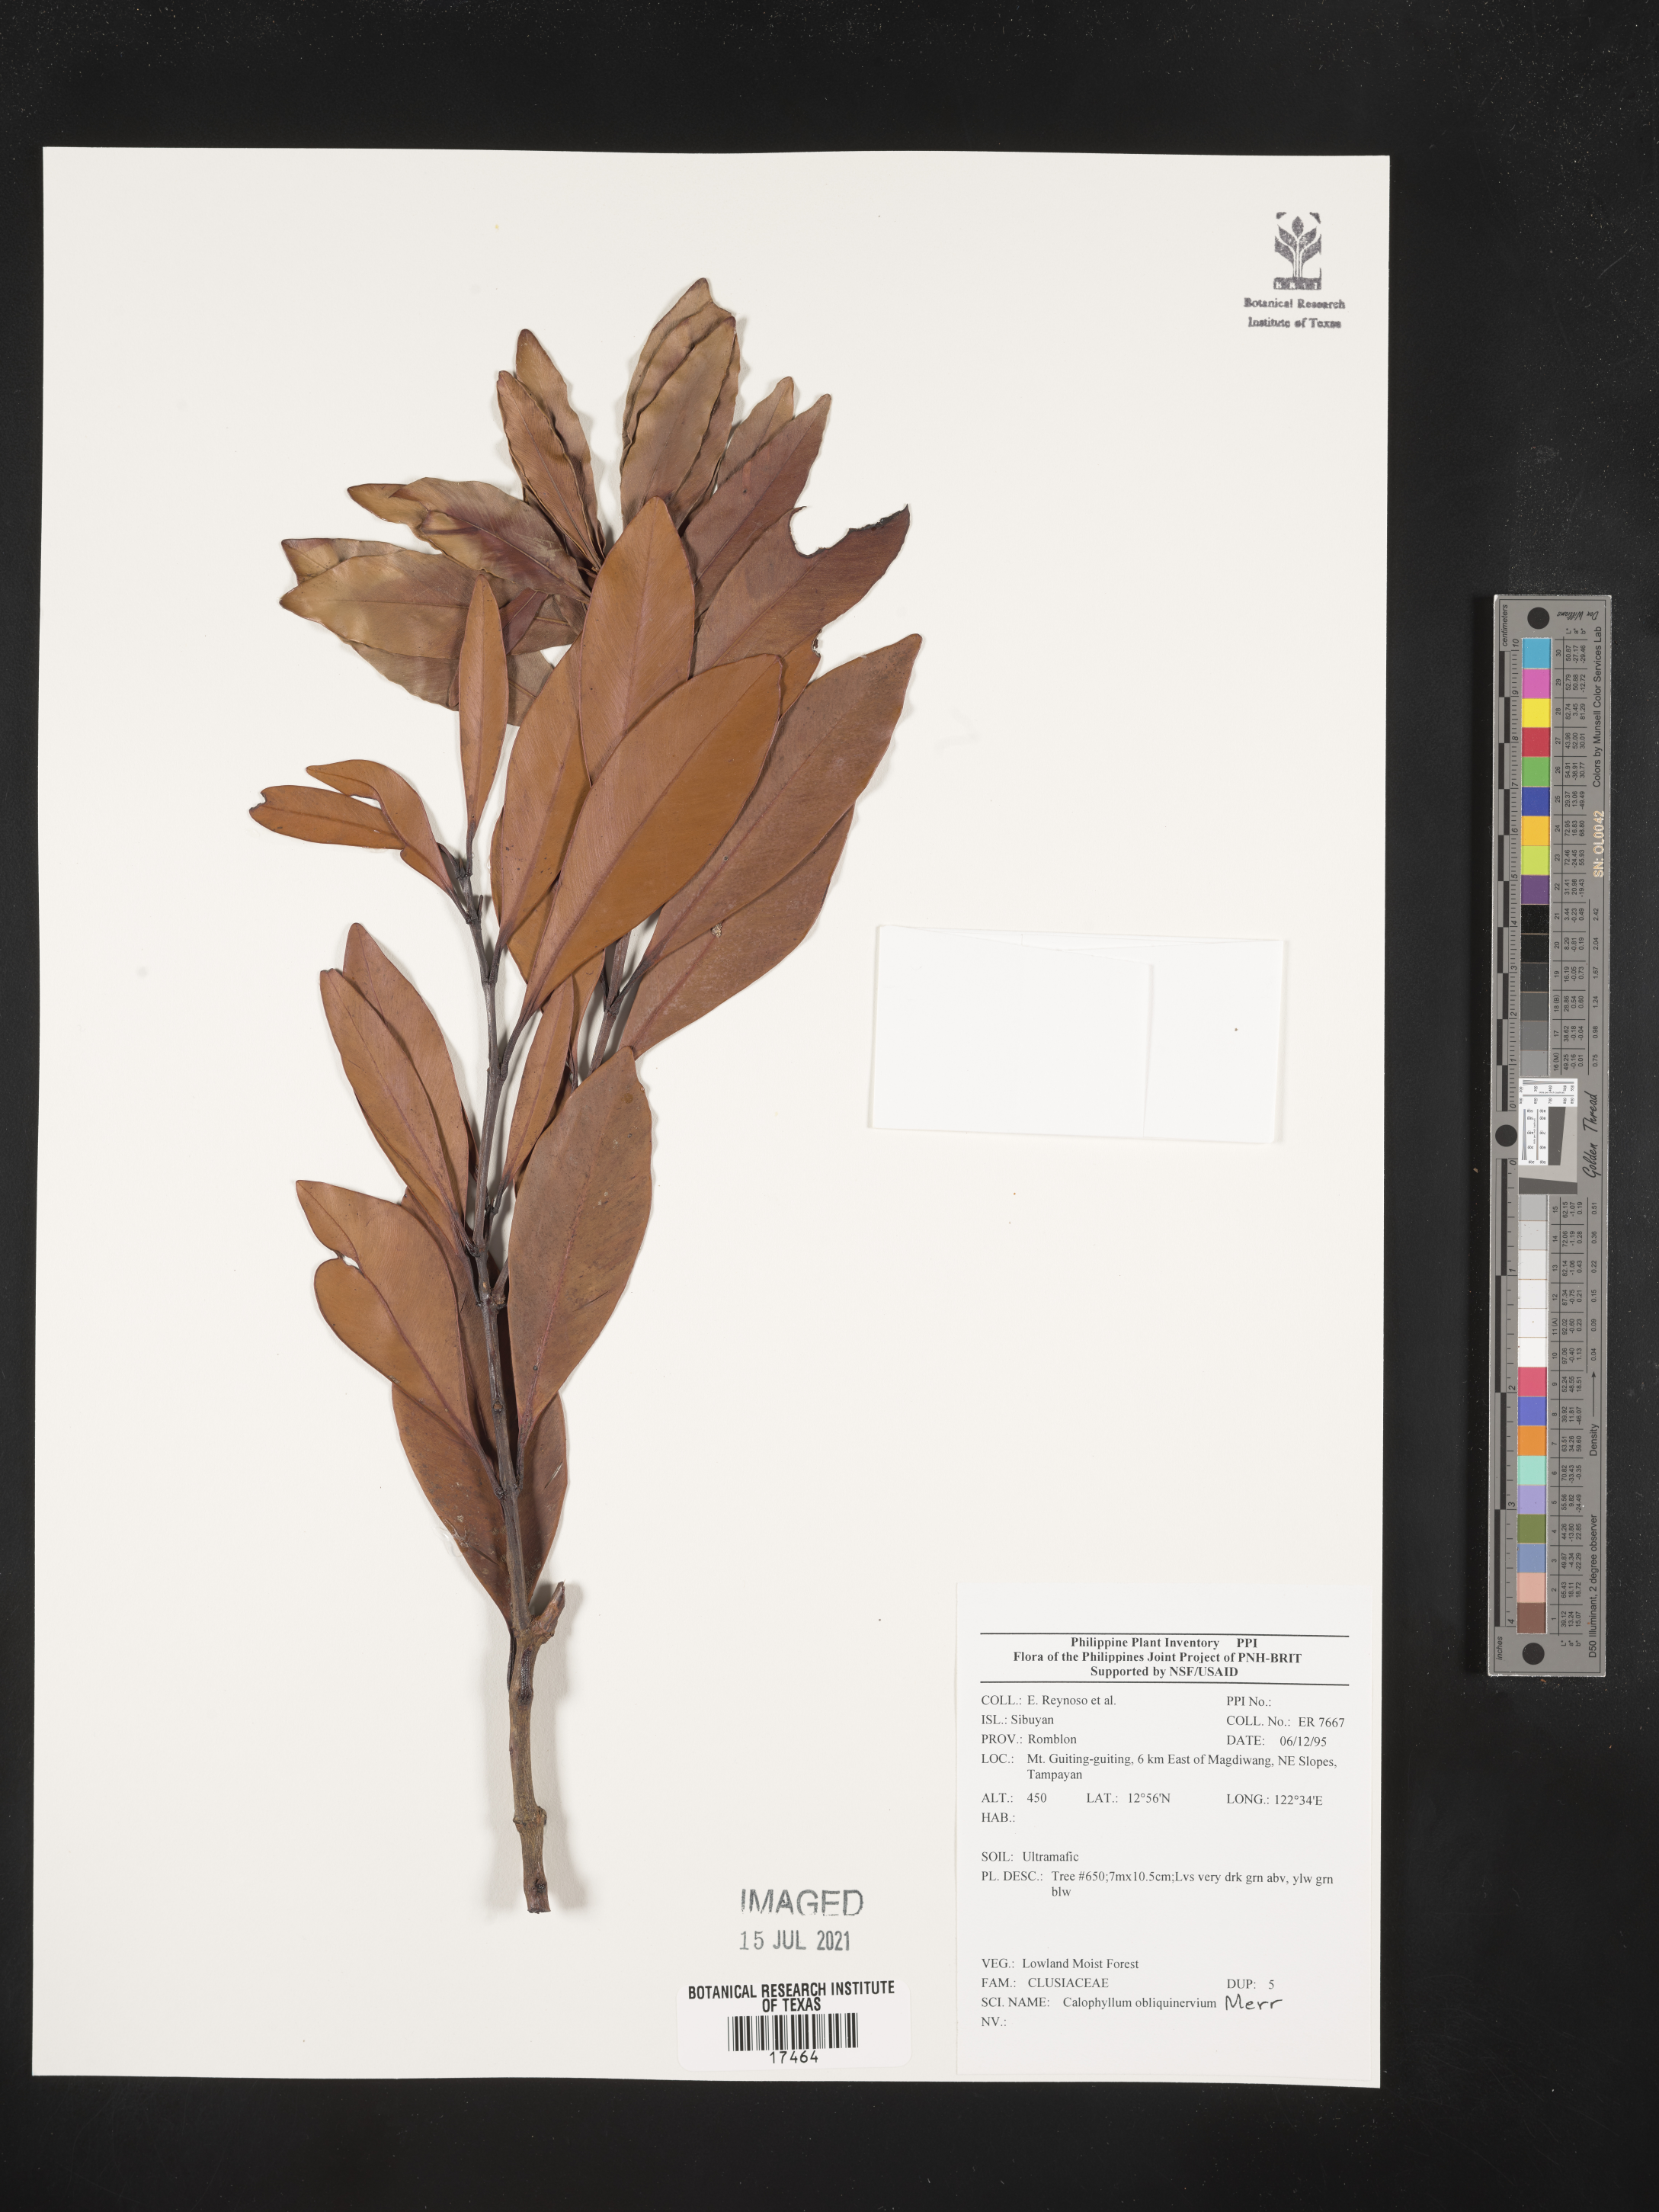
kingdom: Plantae
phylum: Tracheophyta
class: Magnoliopsida
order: Malpighiales
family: Calophyllaceae
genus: Calophyllum
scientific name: Calophyllum obliquinervium
